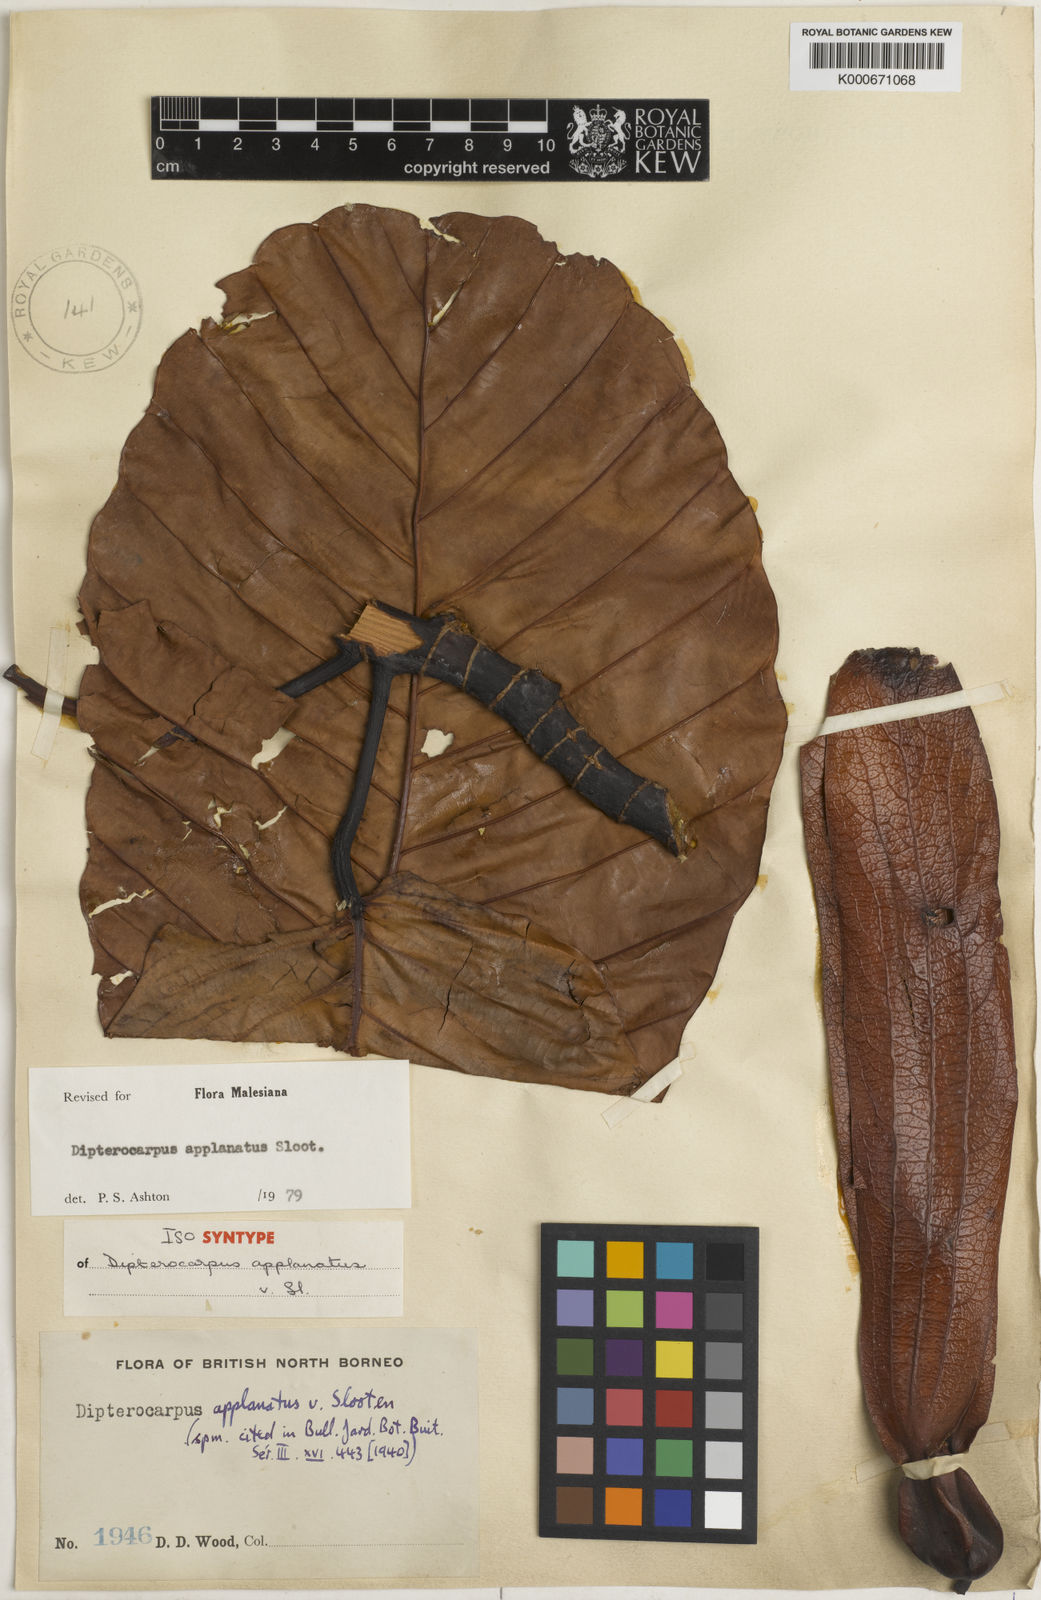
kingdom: Plantae
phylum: Tracheophyta
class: Magnoliopsida
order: Malvales
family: Dipterocarpaceae
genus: Dipterocarpus
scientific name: Dipterocarpus applanatus
